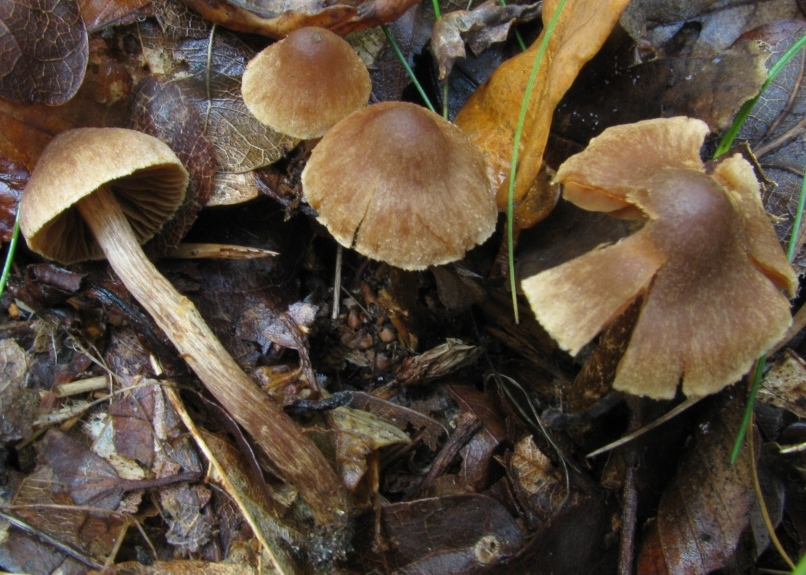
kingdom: Fungi
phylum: Basidiomycota
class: Agaricomycetes
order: Agaricales
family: Cortinariaceae
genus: Cortinarius
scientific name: Cortinarius
